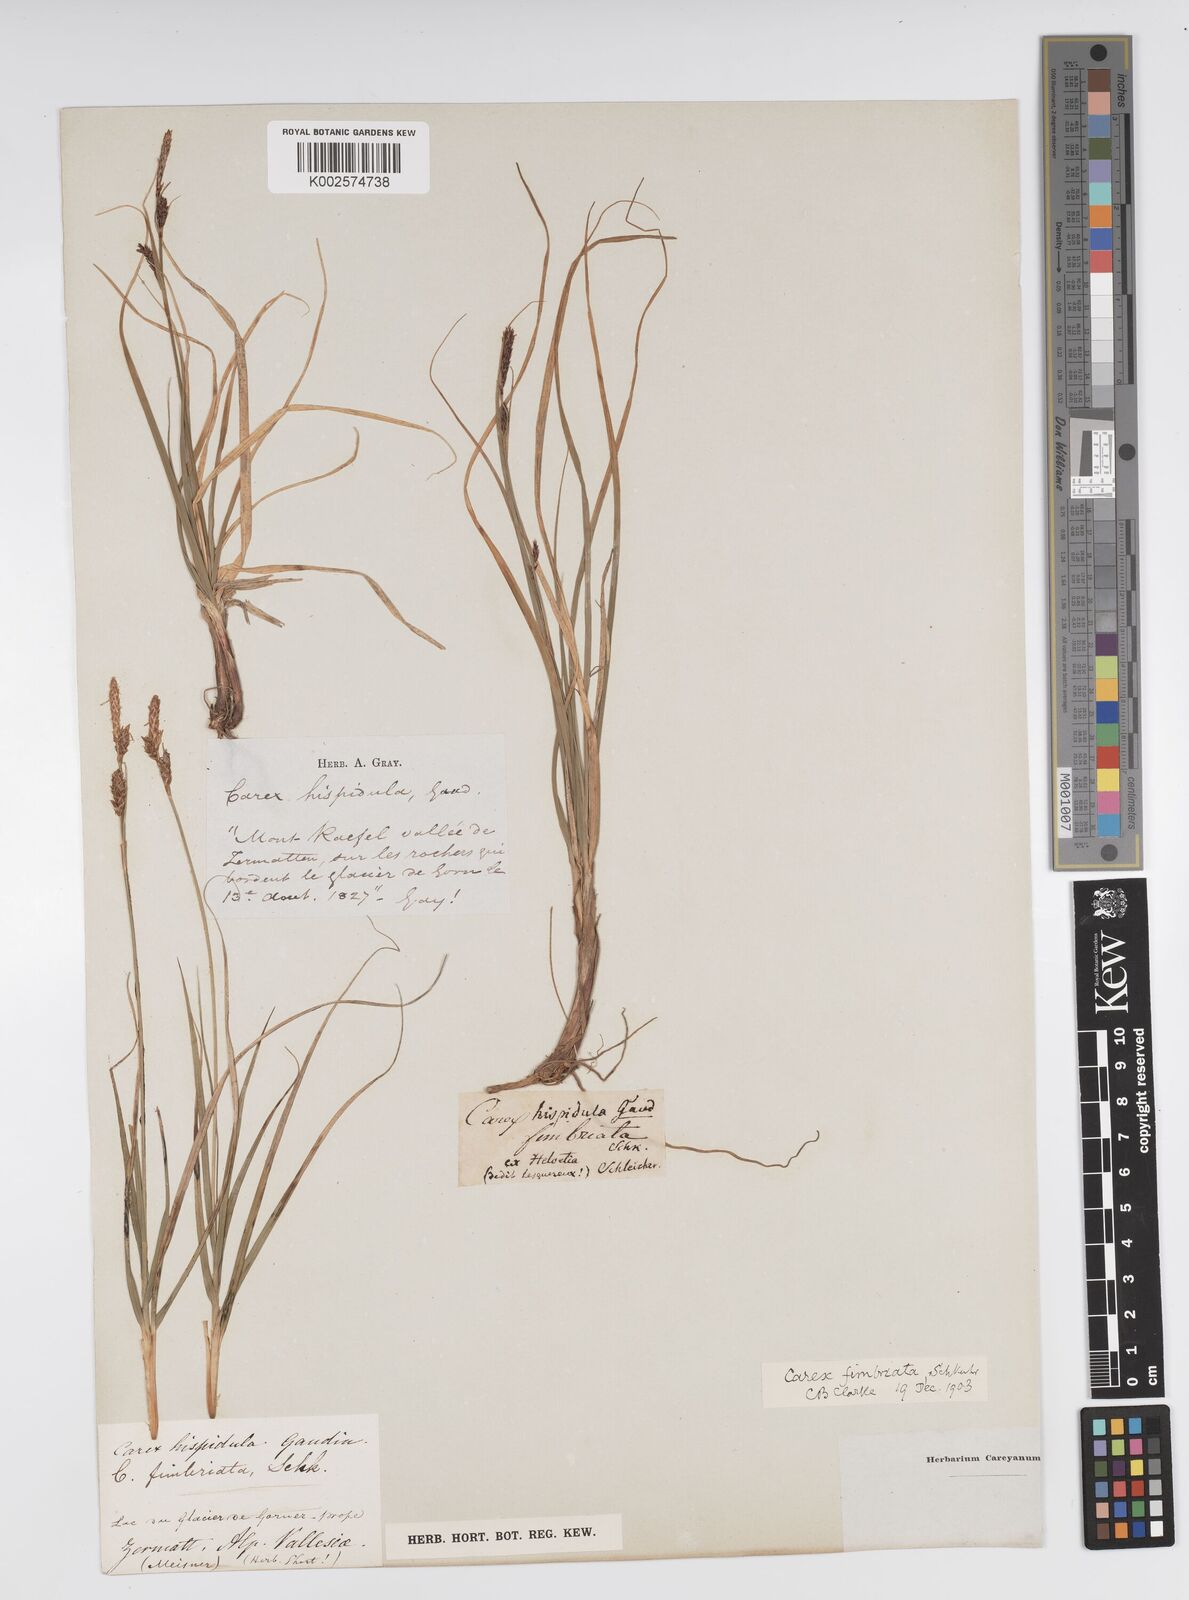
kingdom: Plantae
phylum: Tracheophyta
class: Liliopsida
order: Poales
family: Cyperaceae
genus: Carex
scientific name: Carex fimbriata
